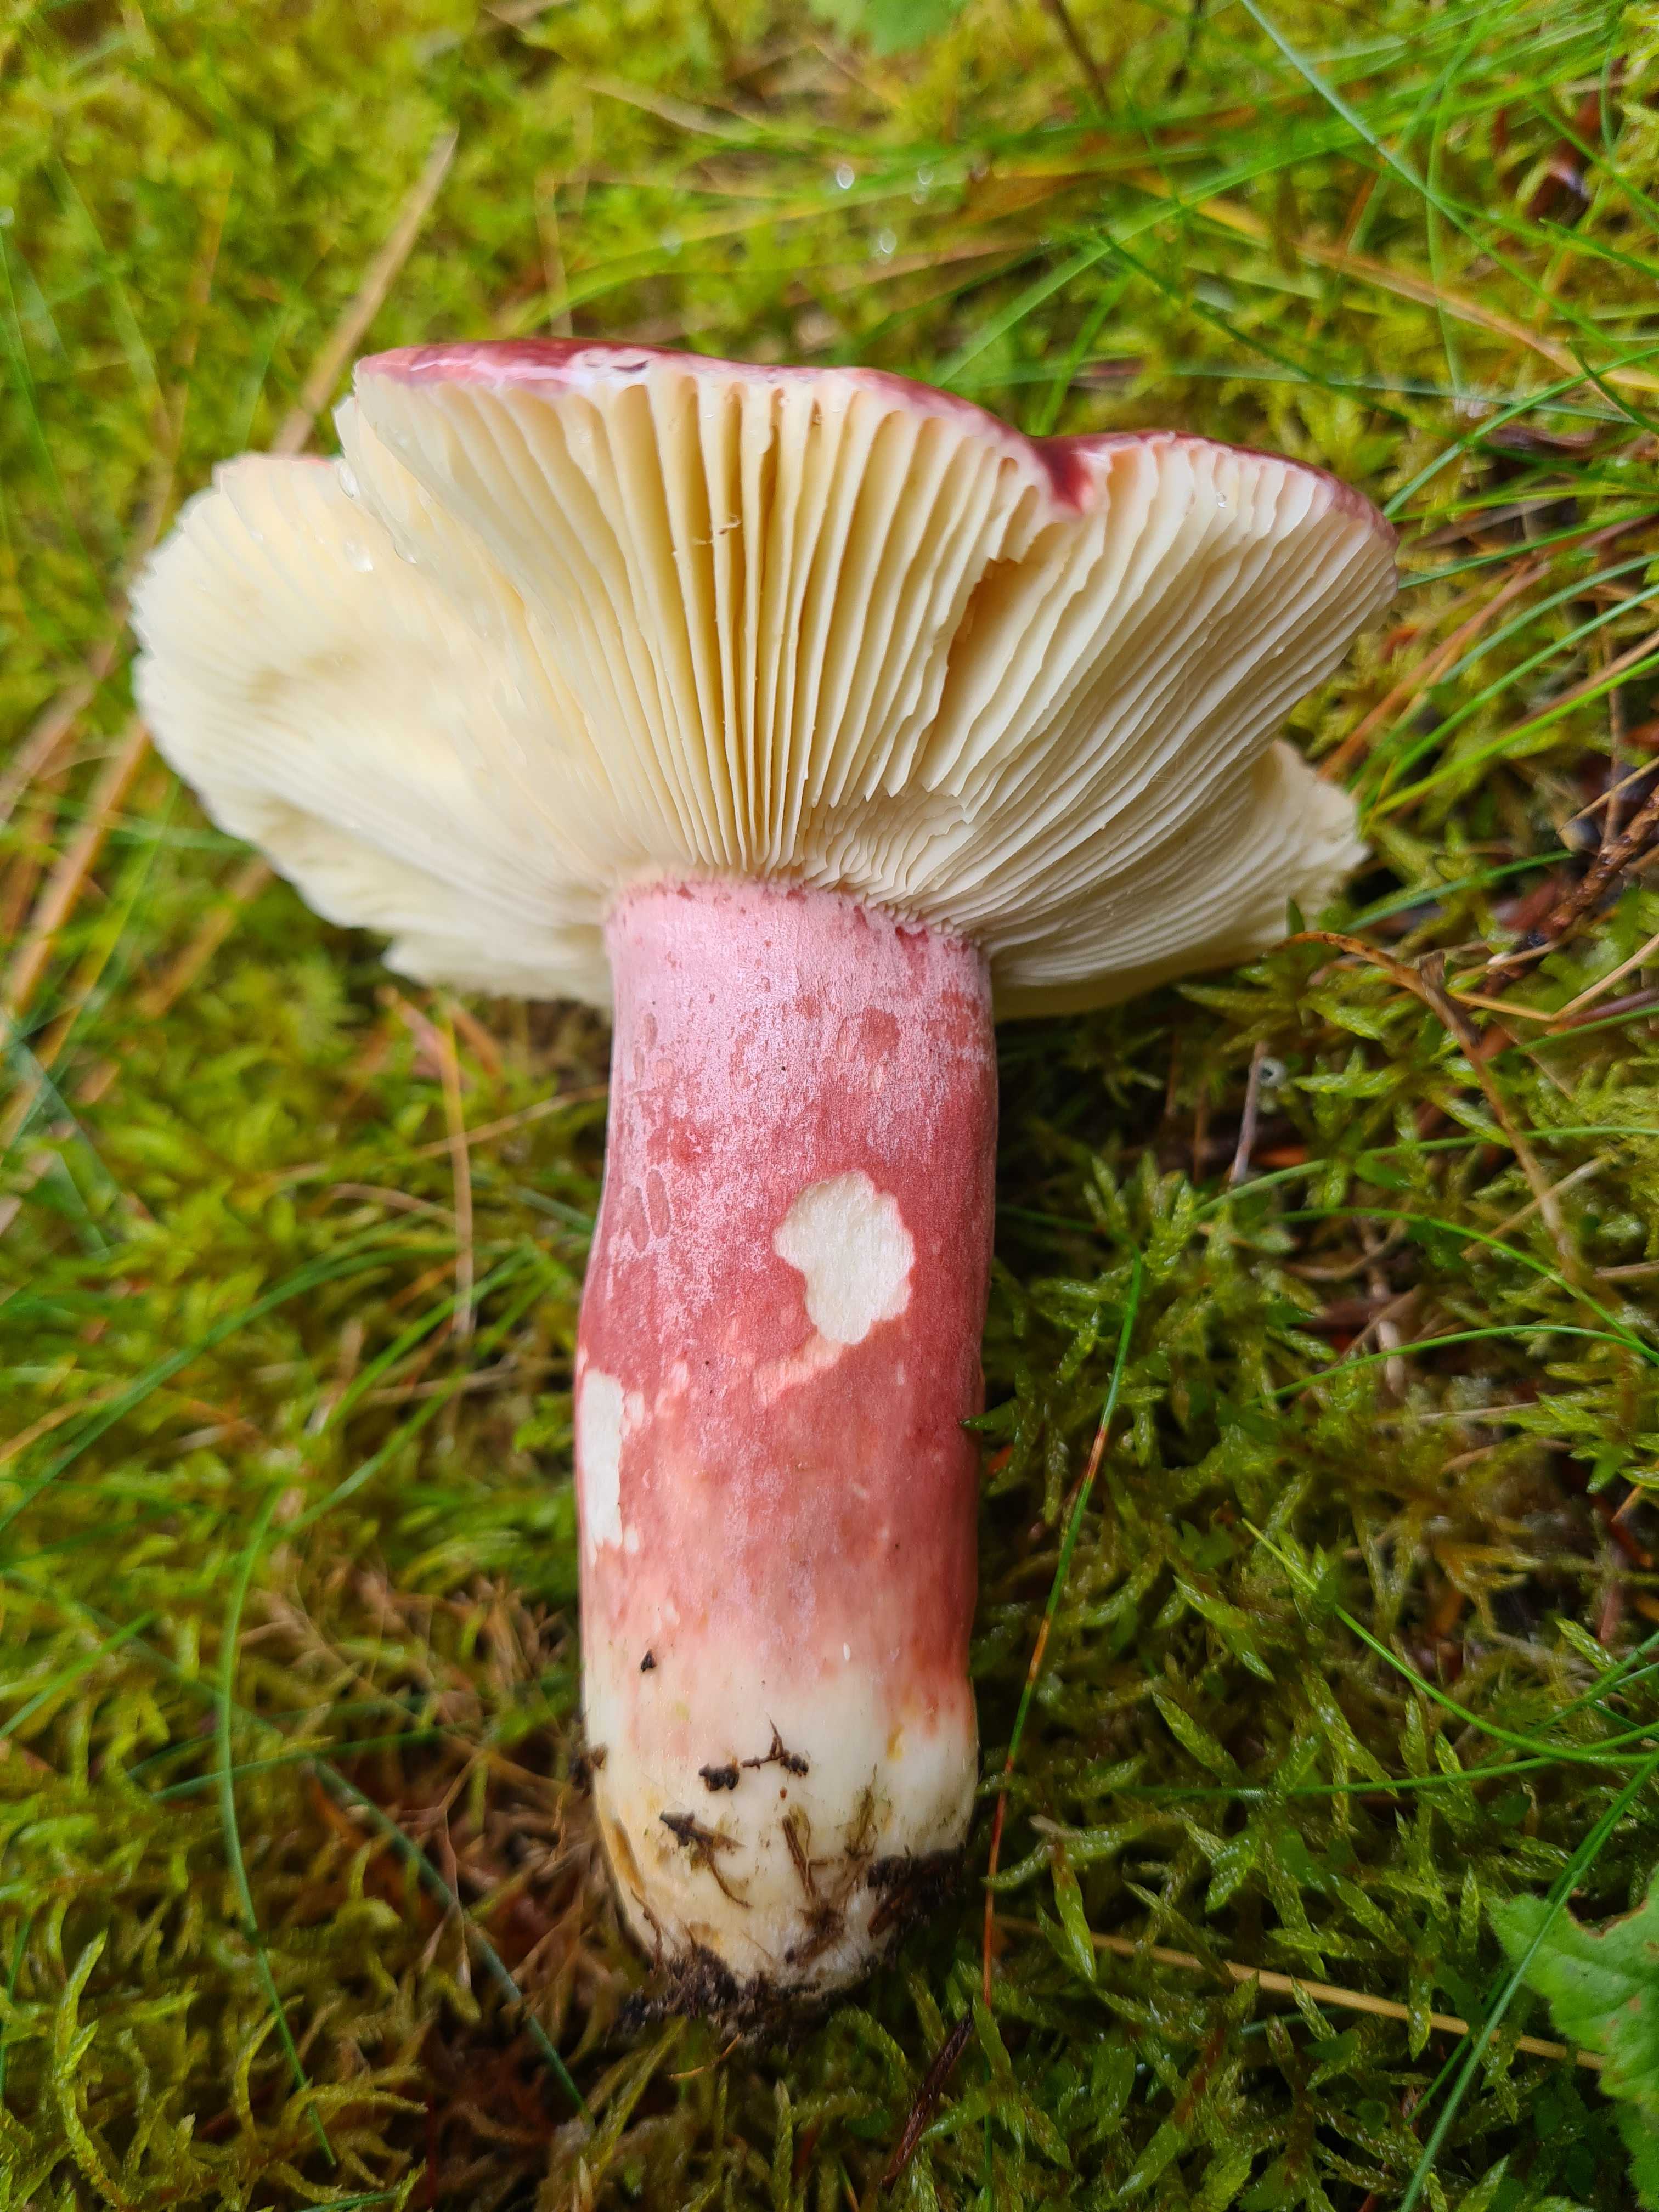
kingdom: Fungi
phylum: Basidiomycota
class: Agaricomycetes
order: Russulales
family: Russulaceae
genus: Russula
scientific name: Russula queletii
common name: Quélets skørhat
